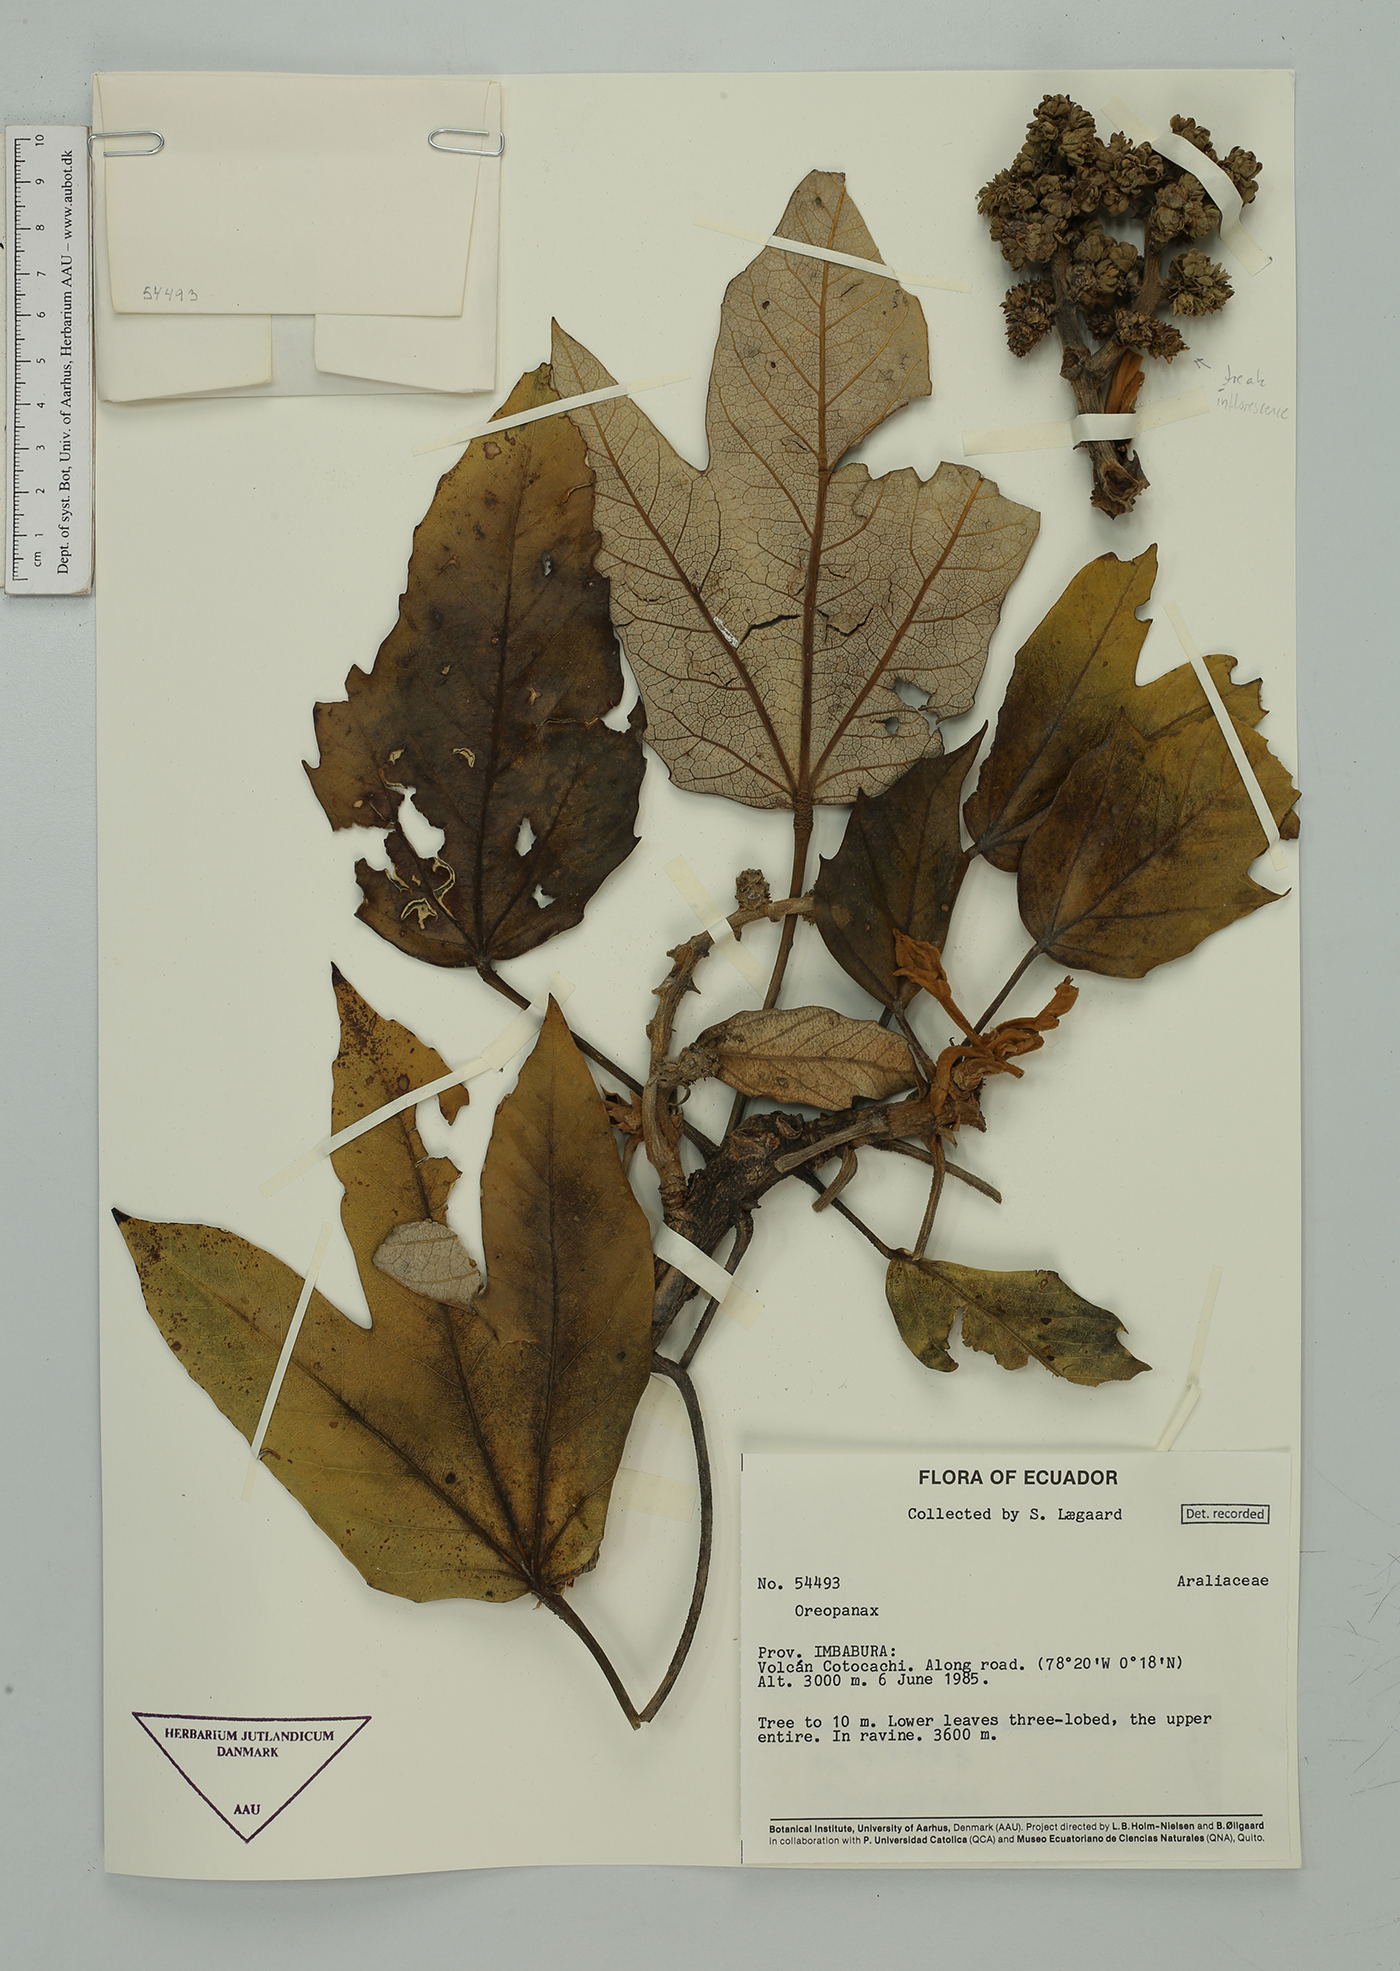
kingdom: Plantae
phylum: Tracheophyta
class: Magnoliopsida
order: Apiales
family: Araliaceae
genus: Oreopanax
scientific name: Oreopanax
